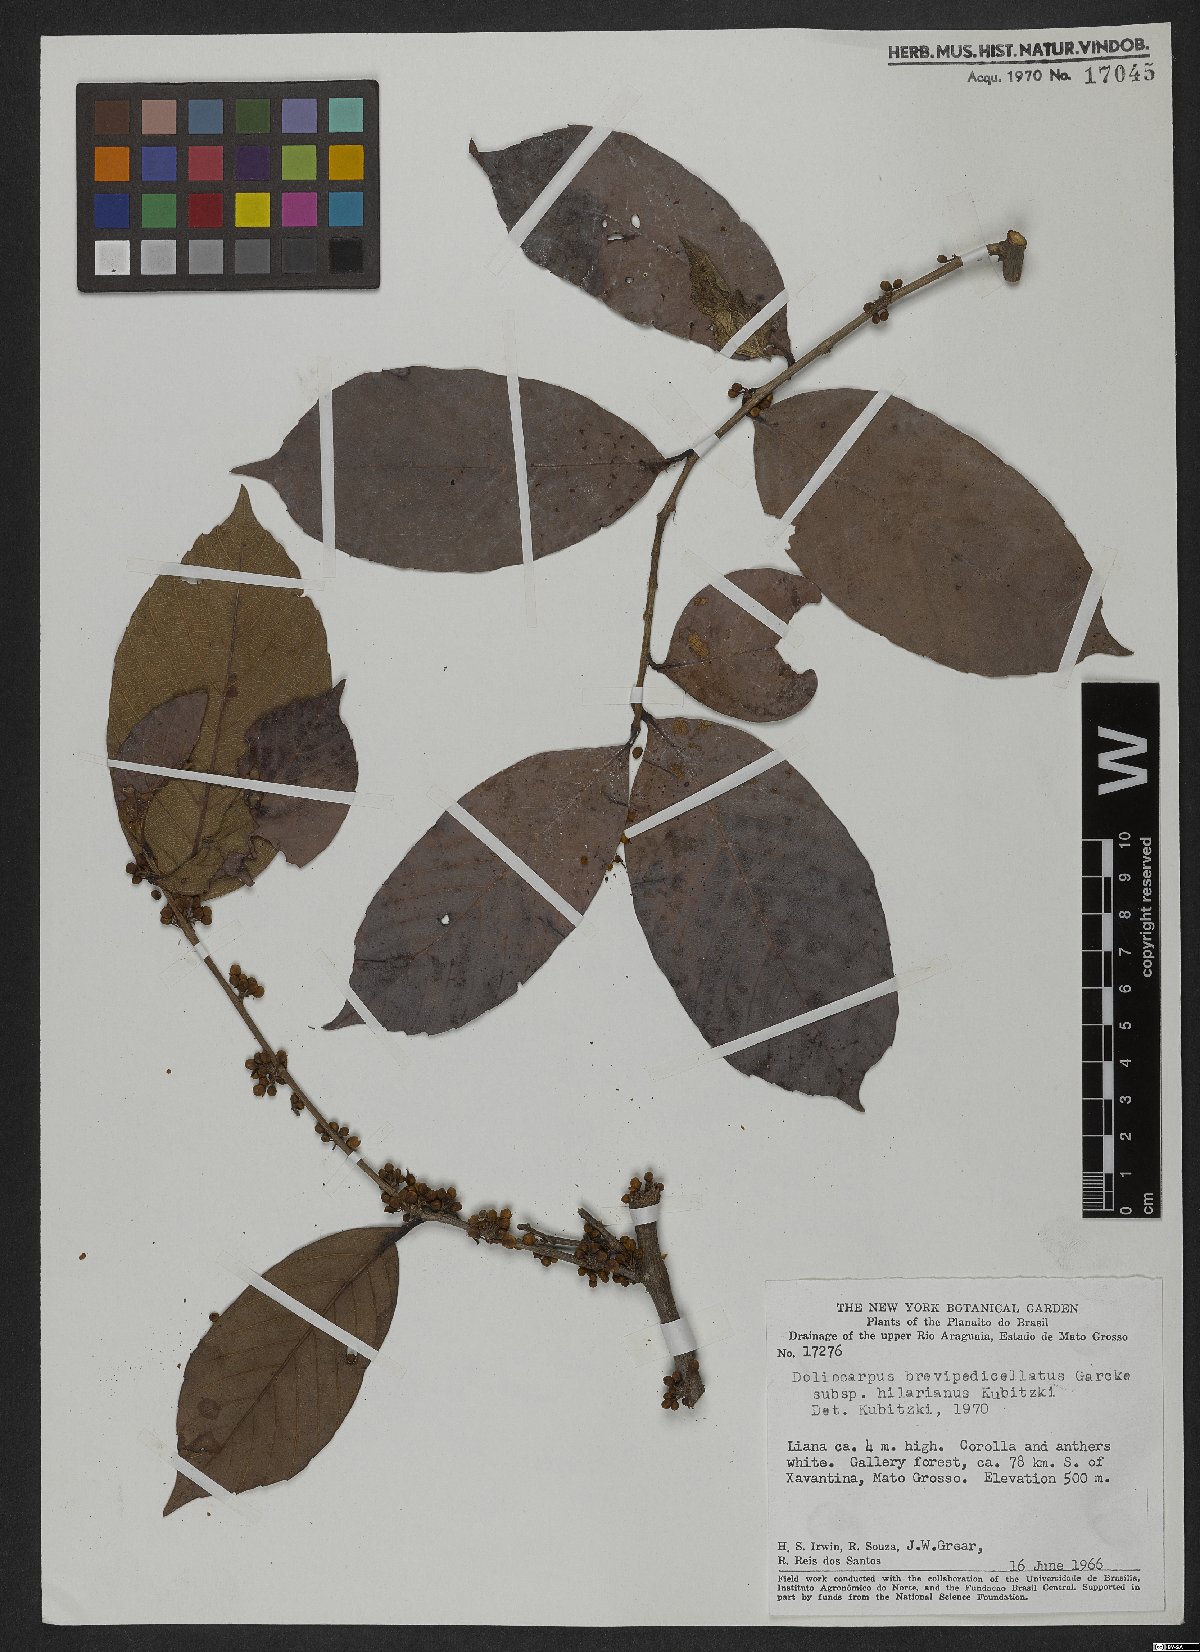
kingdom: Plantae
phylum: Tracheophyta
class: Magnoliopsida
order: Dilleniales
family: Dilleniaceae
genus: Doliocarpus
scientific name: Doliocarpus brevipedicellatus
